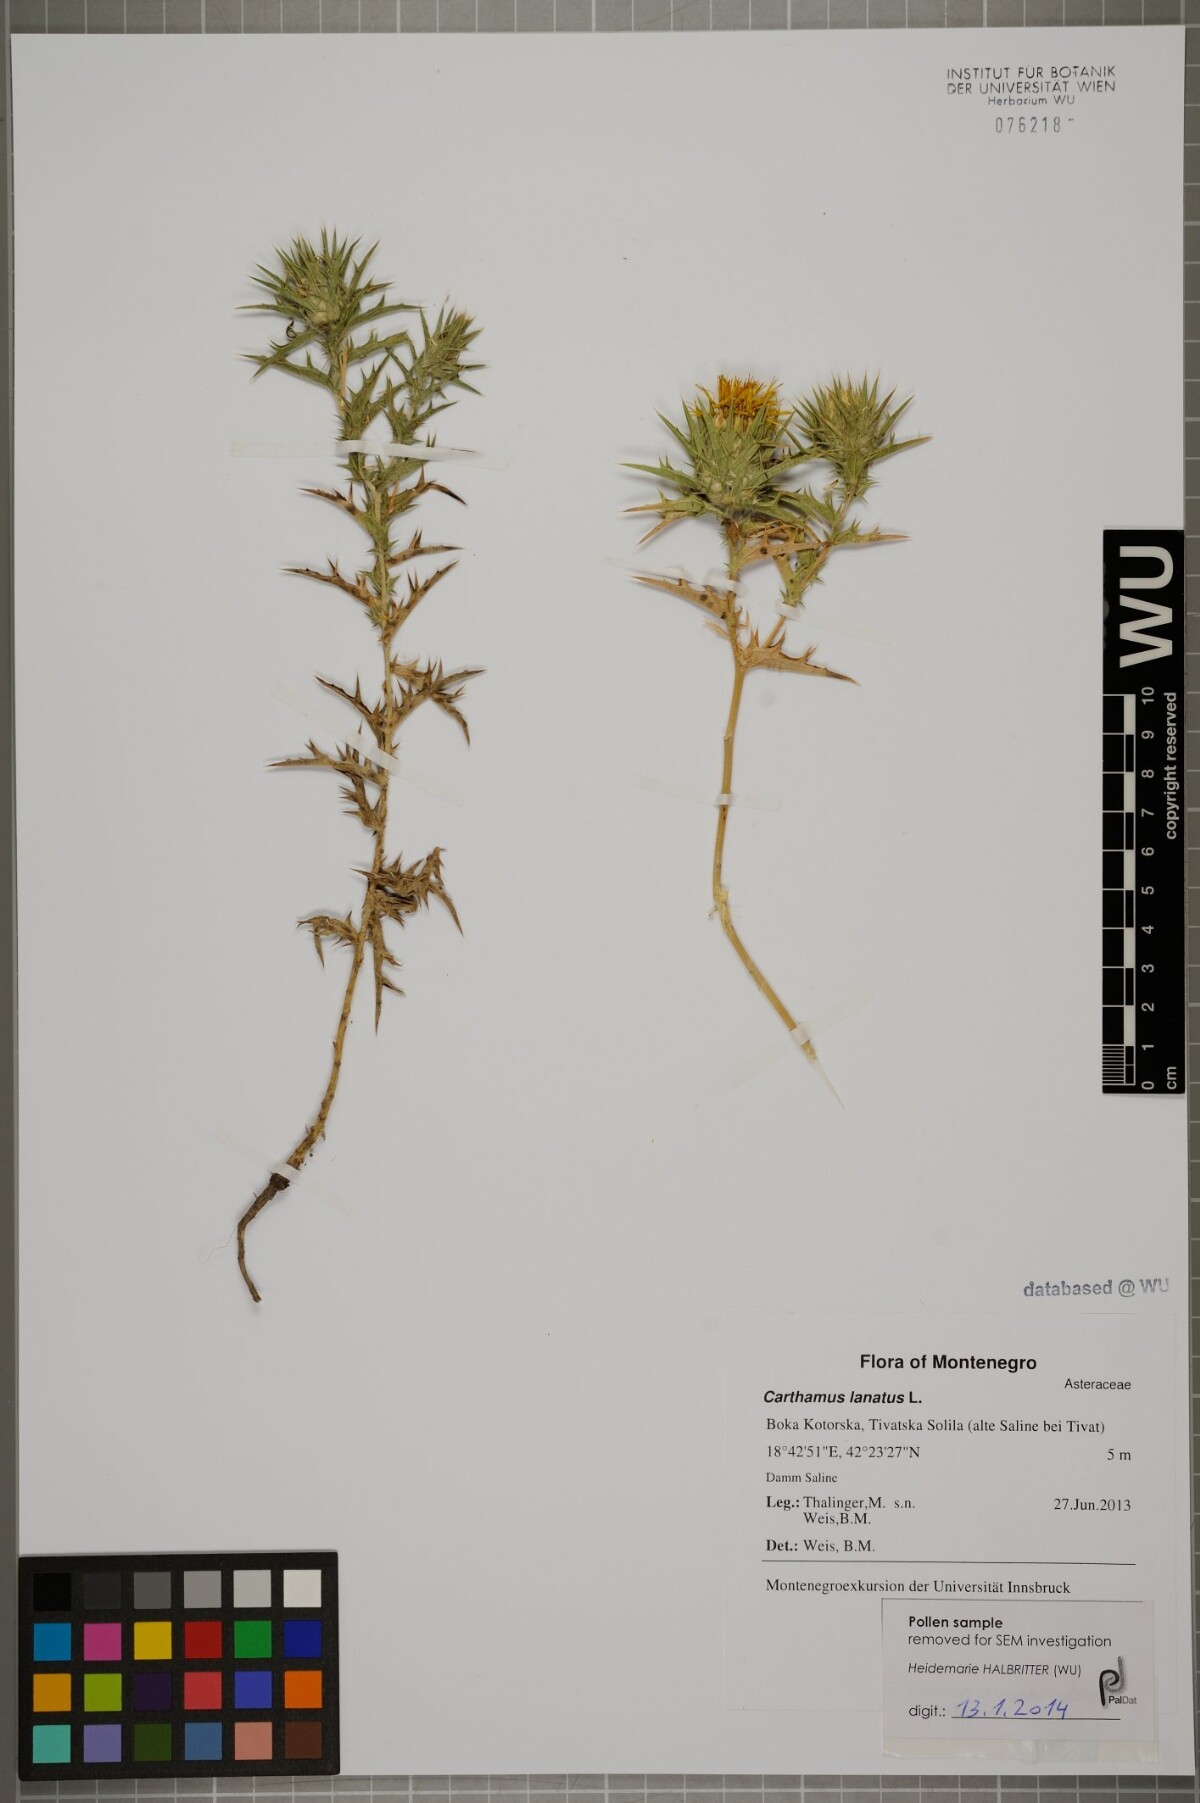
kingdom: Plantae
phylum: Tracheophyta
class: Magnoliopsida
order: Asterales
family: Asteraceae
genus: Carthamus
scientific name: Carthamus lanatus
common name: Downy safflower
